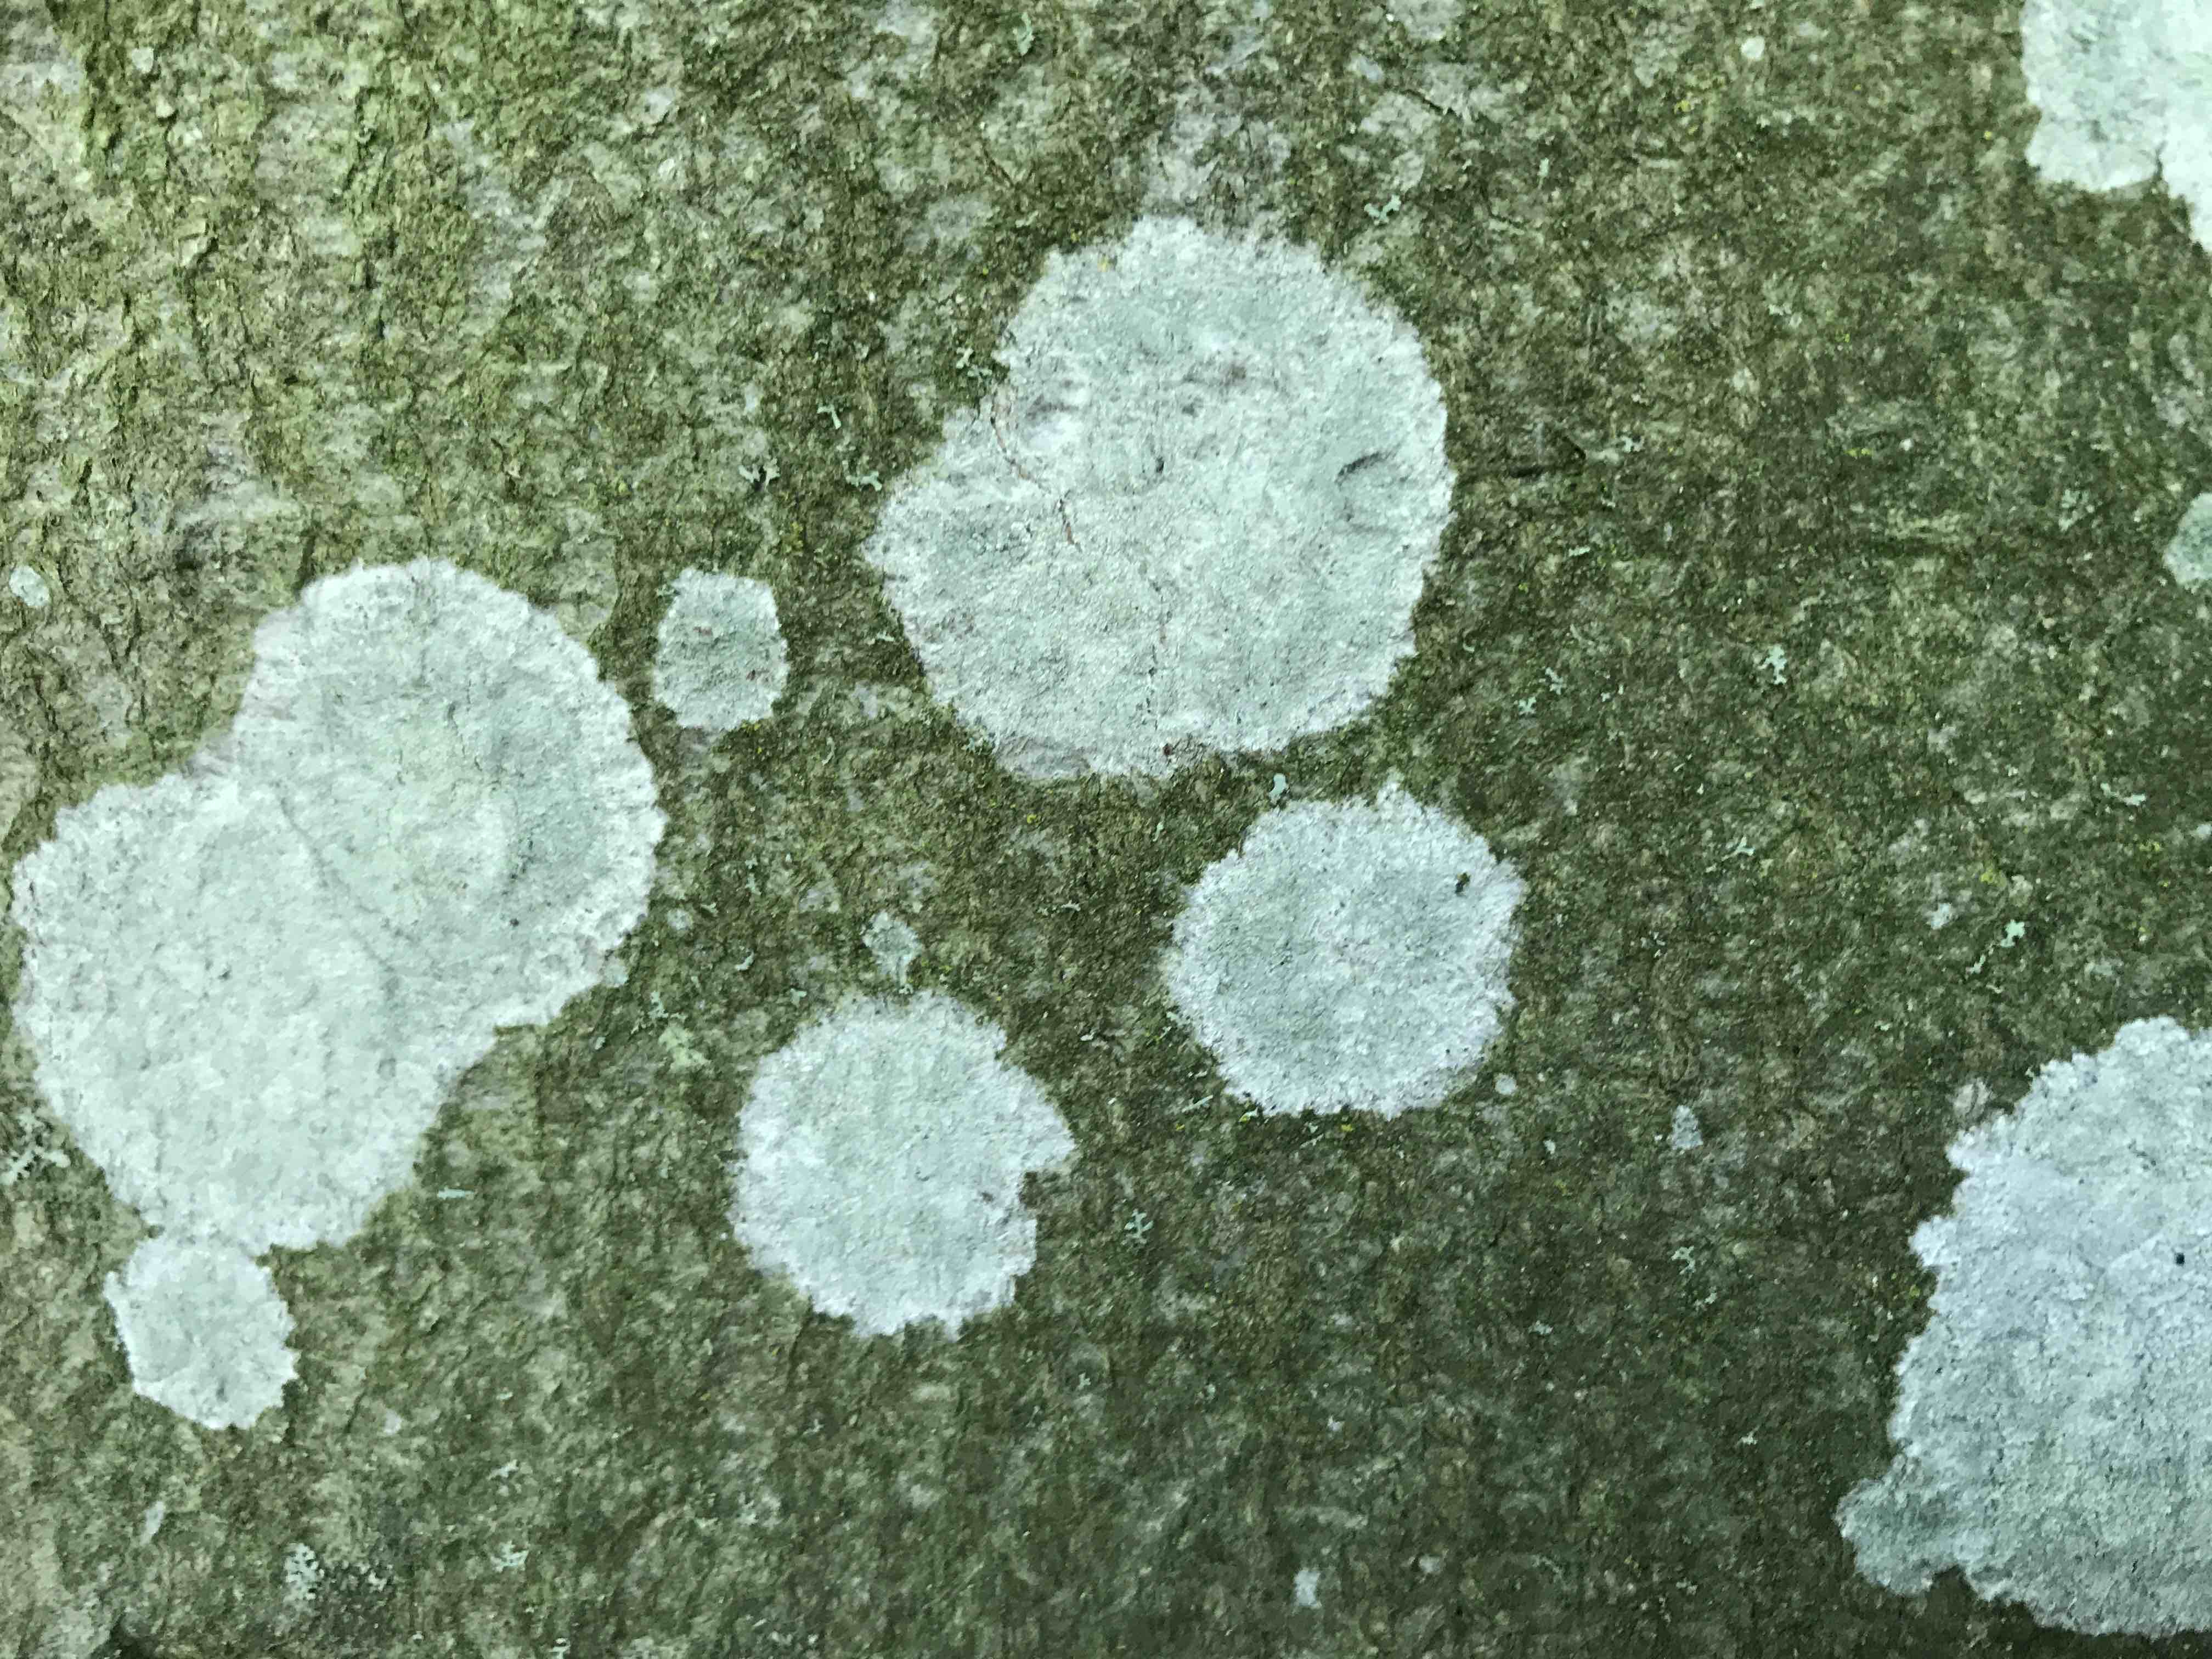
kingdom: Fungi
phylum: Ascomycota
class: Lecanoromycetes
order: Ostropales
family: Phlyctidaceae
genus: Phlyctis
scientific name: Phlyctis argena
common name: almindelig sølvlav
